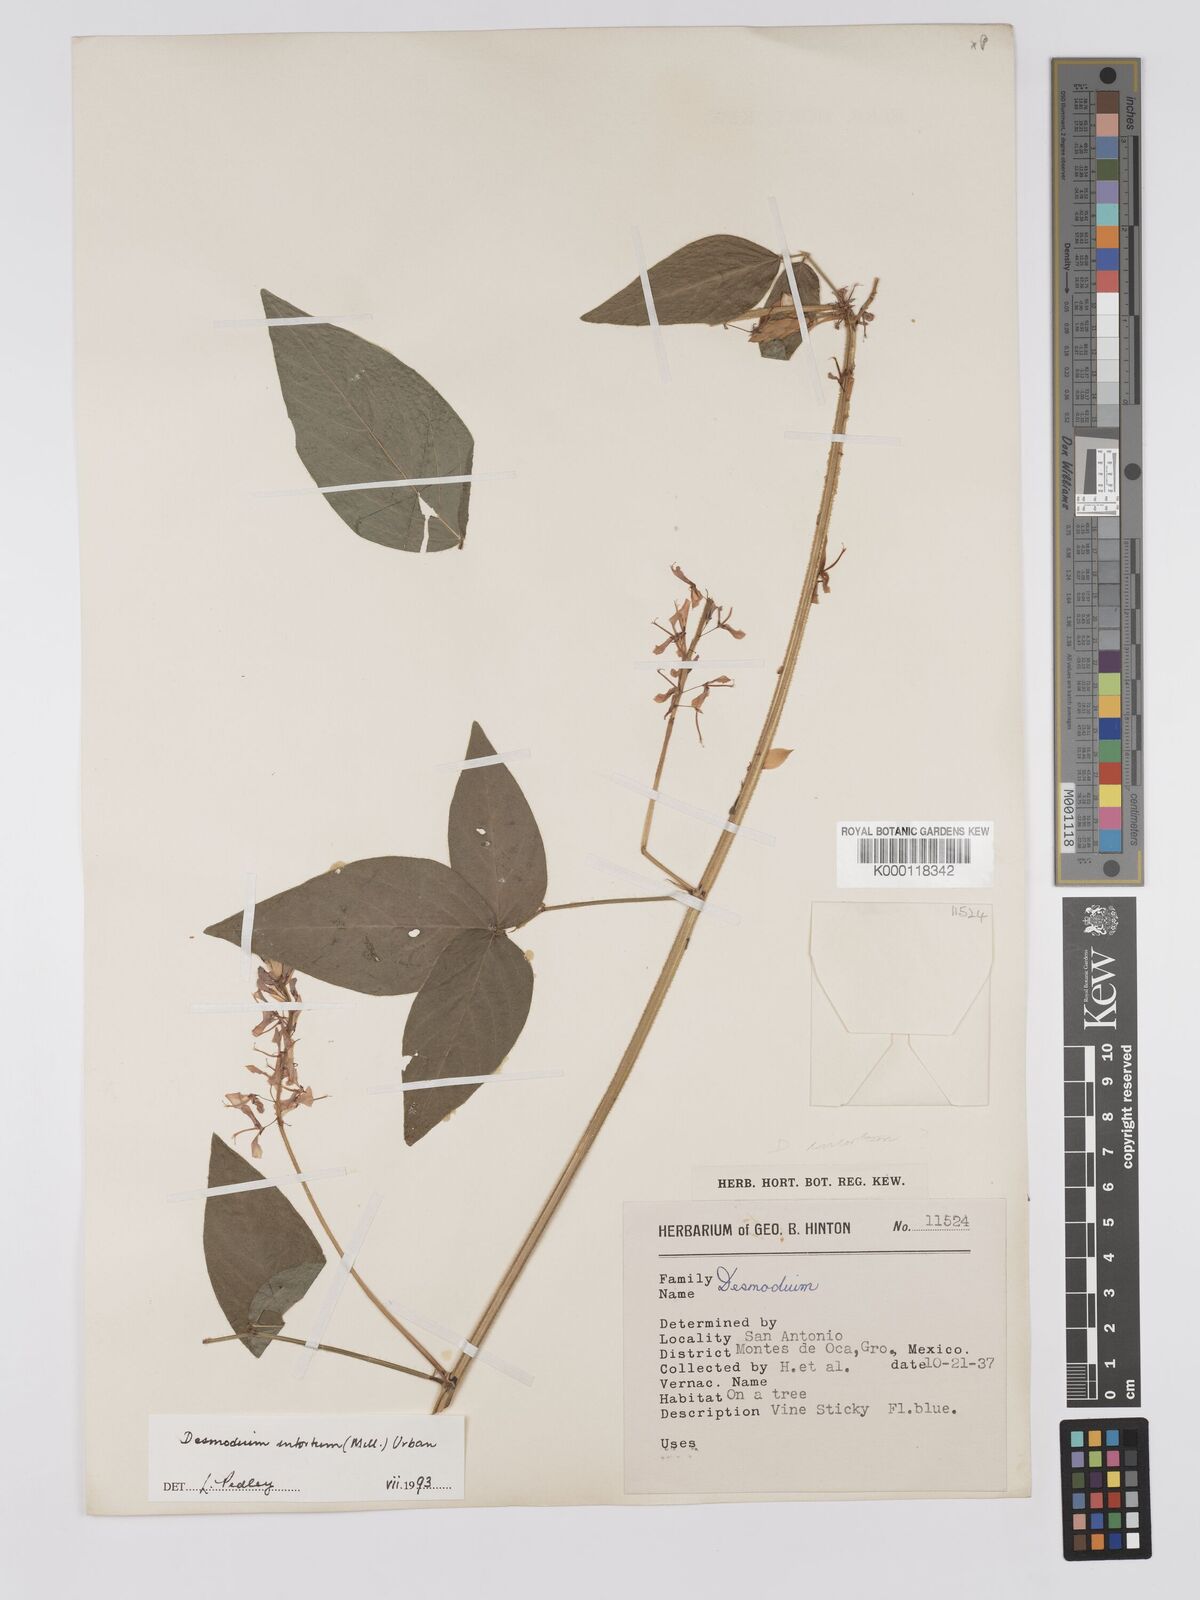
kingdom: Plantae
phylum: Tracheophyta
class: Magnoliopsida
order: Fabales
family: Fabaceae
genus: Desmodium
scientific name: Desmodium intortum
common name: Greenleaf ticktrefoil
